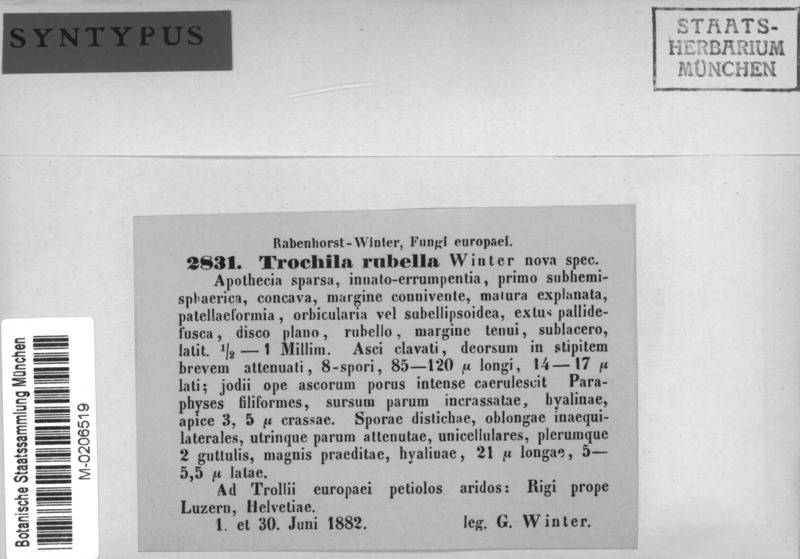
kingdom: Fungi
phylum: Ascomycota
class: Leotiomycetes
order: Helotiales
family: Dermateaceae
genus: Naevia
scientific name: Naevia rubella
